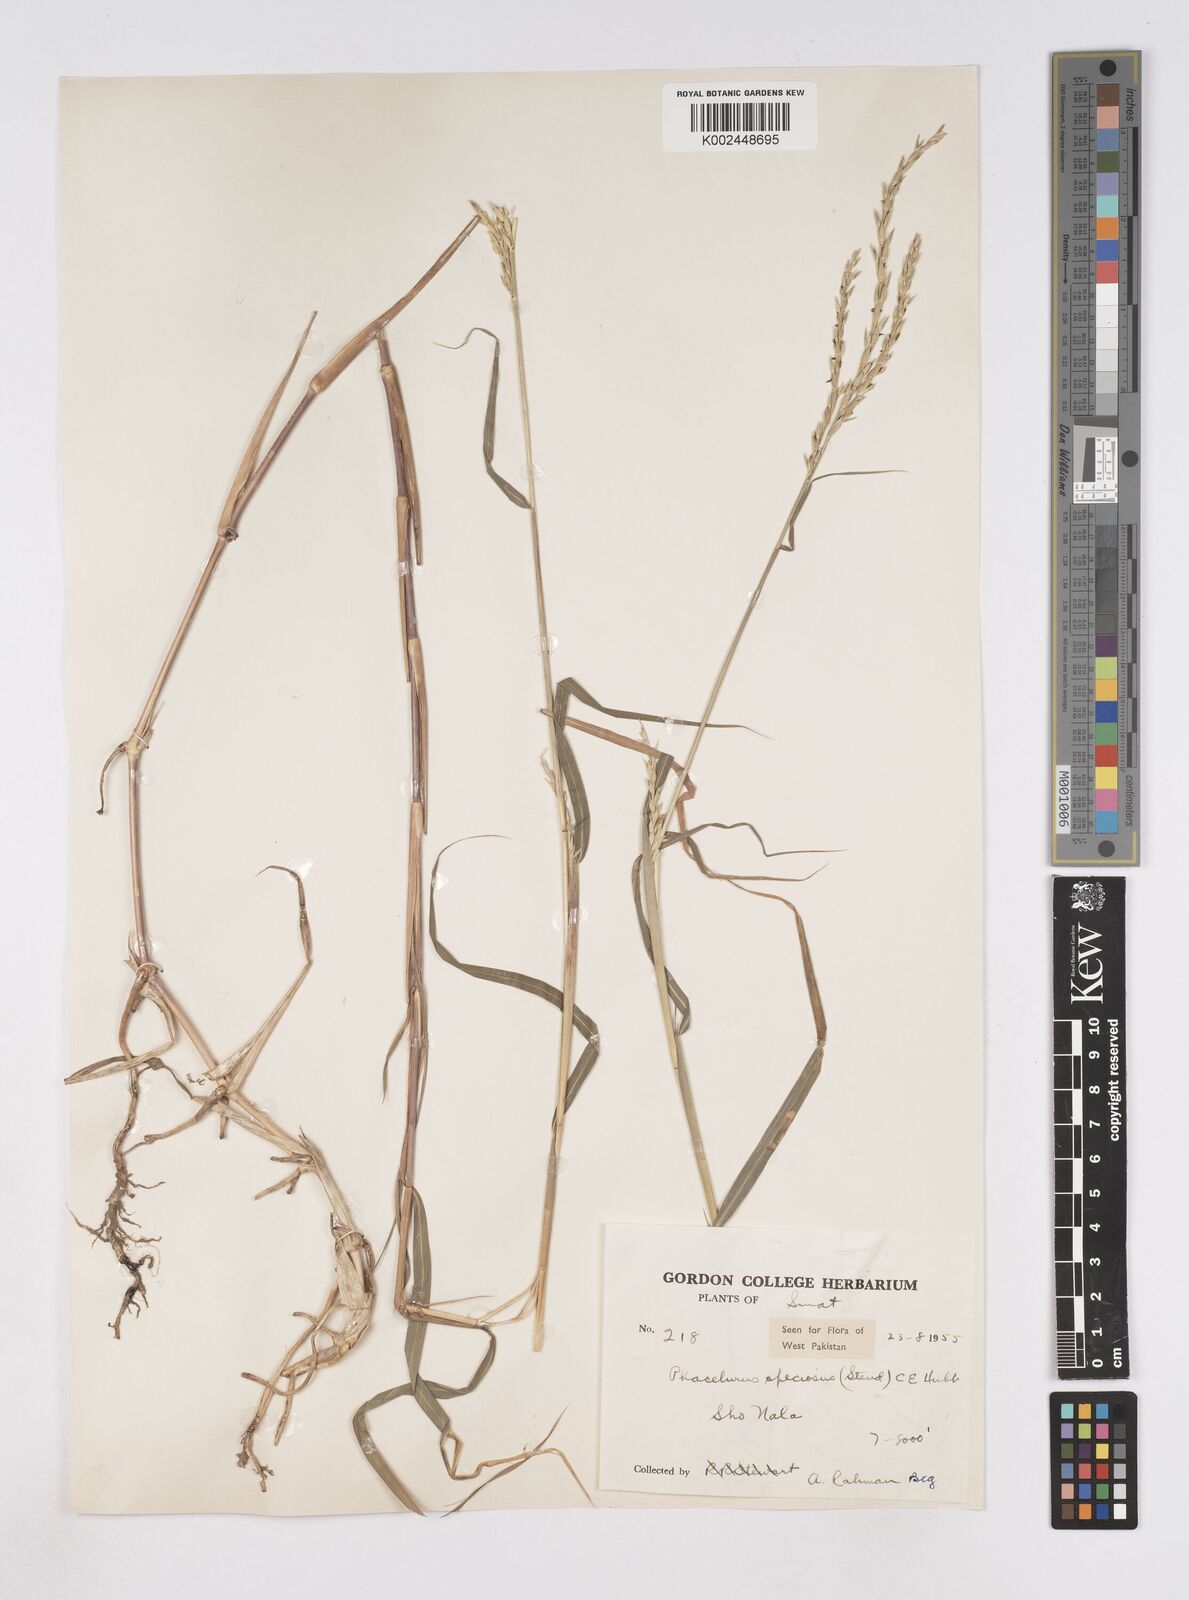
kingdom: Plantae
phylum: Tracheophyta
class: Liliopsida
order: Poales
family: Poaceae
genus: Phacelurus
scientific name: Phacelurus speciosus
